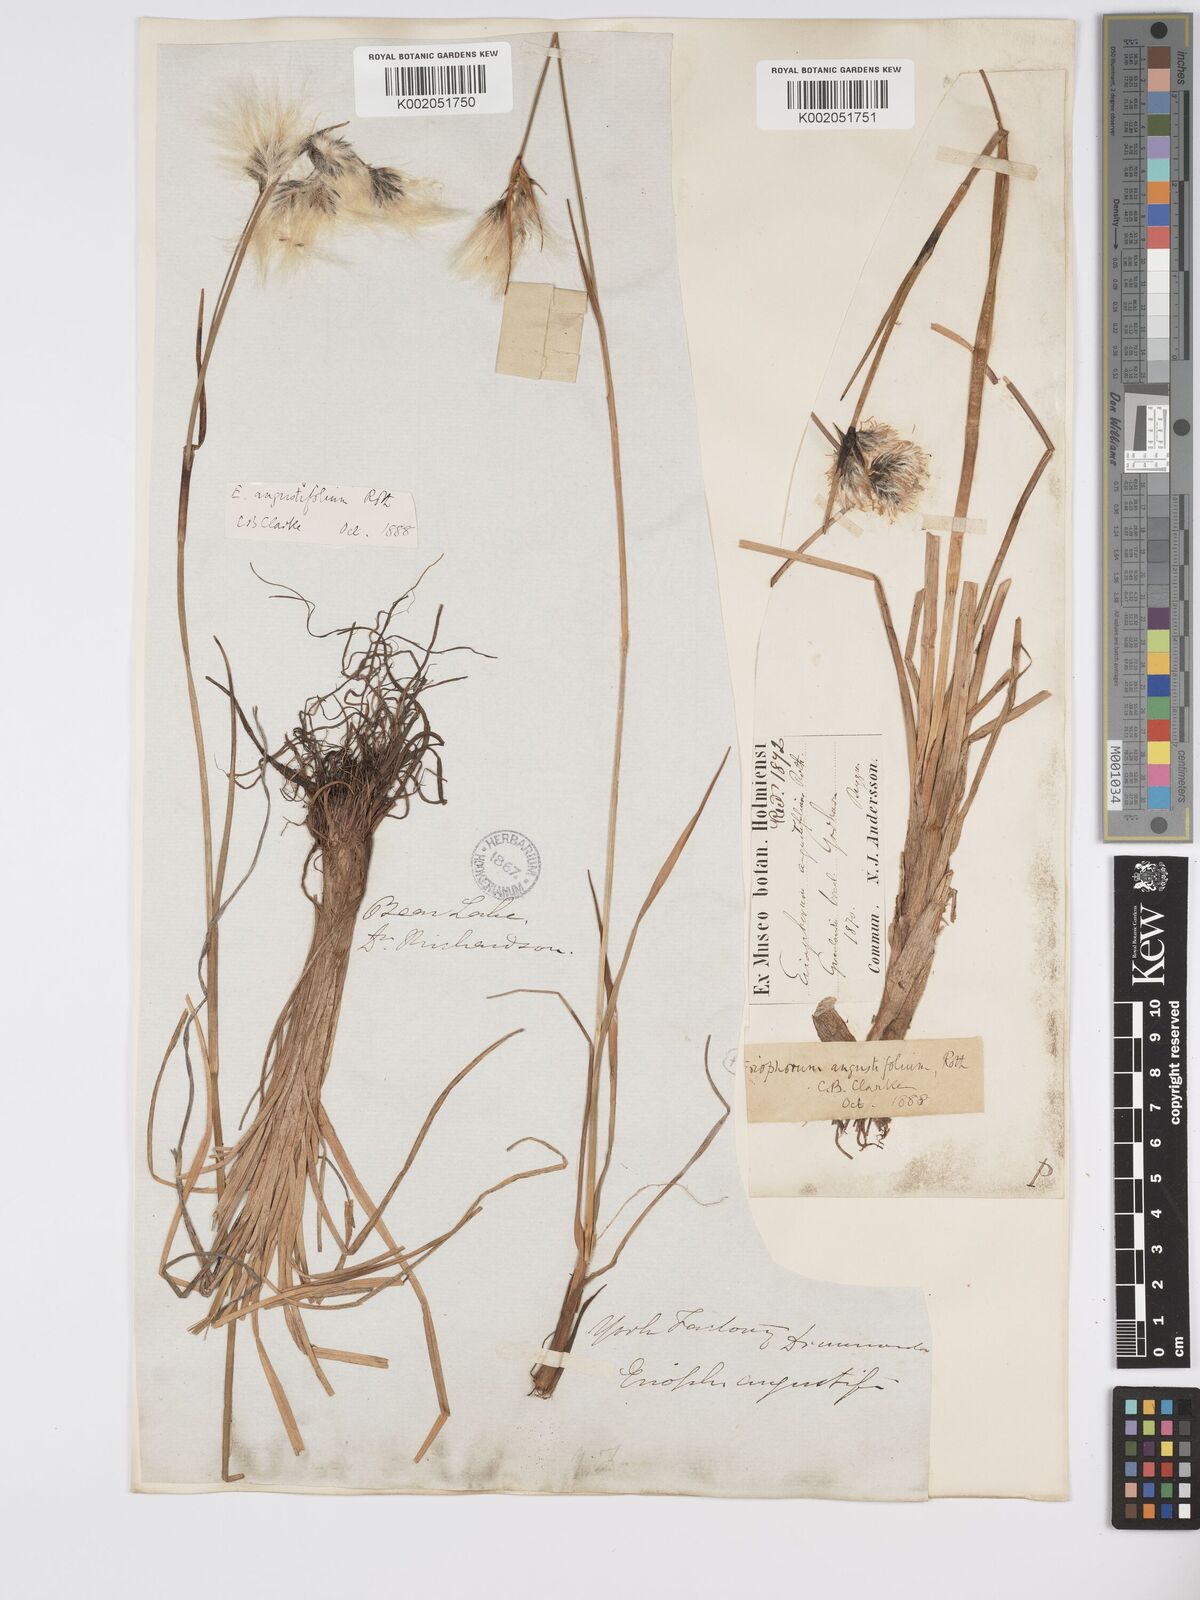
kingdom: Plantae
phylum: Tracheophyta
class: Liliopsida
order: Poales
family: Cyperaceae
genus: Eriophorum
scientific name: Eriophorum angustifolium
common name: Common cottongrass
